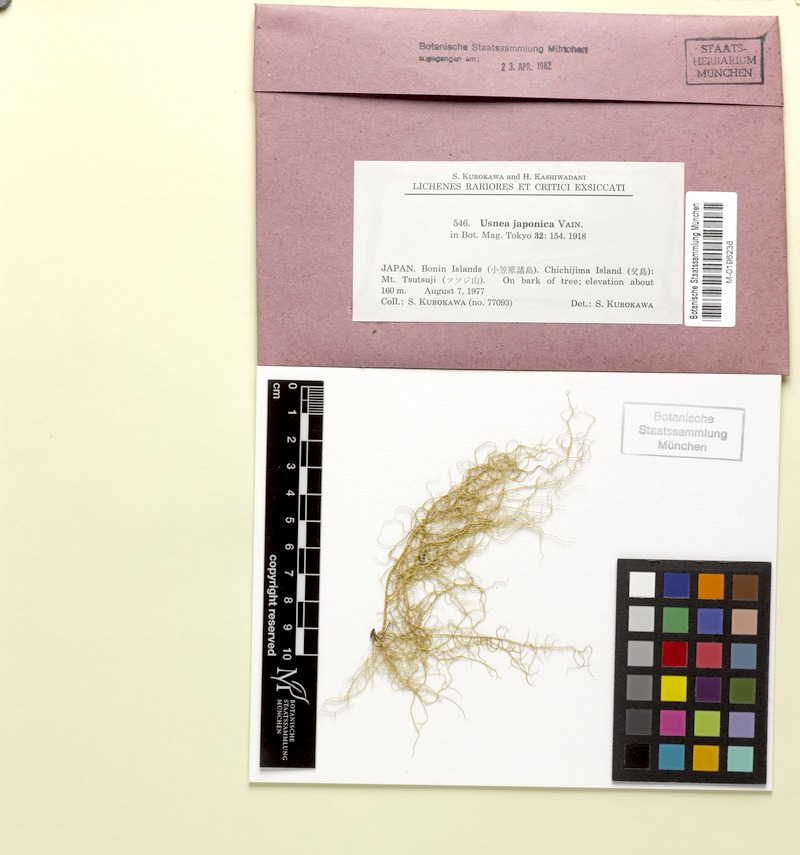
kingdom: Fungi
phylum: Ascomycota
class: Lecanoromycetes
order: Lecanorales
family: Parmeliaceae
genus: Usnea
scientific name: Usnea japonica
